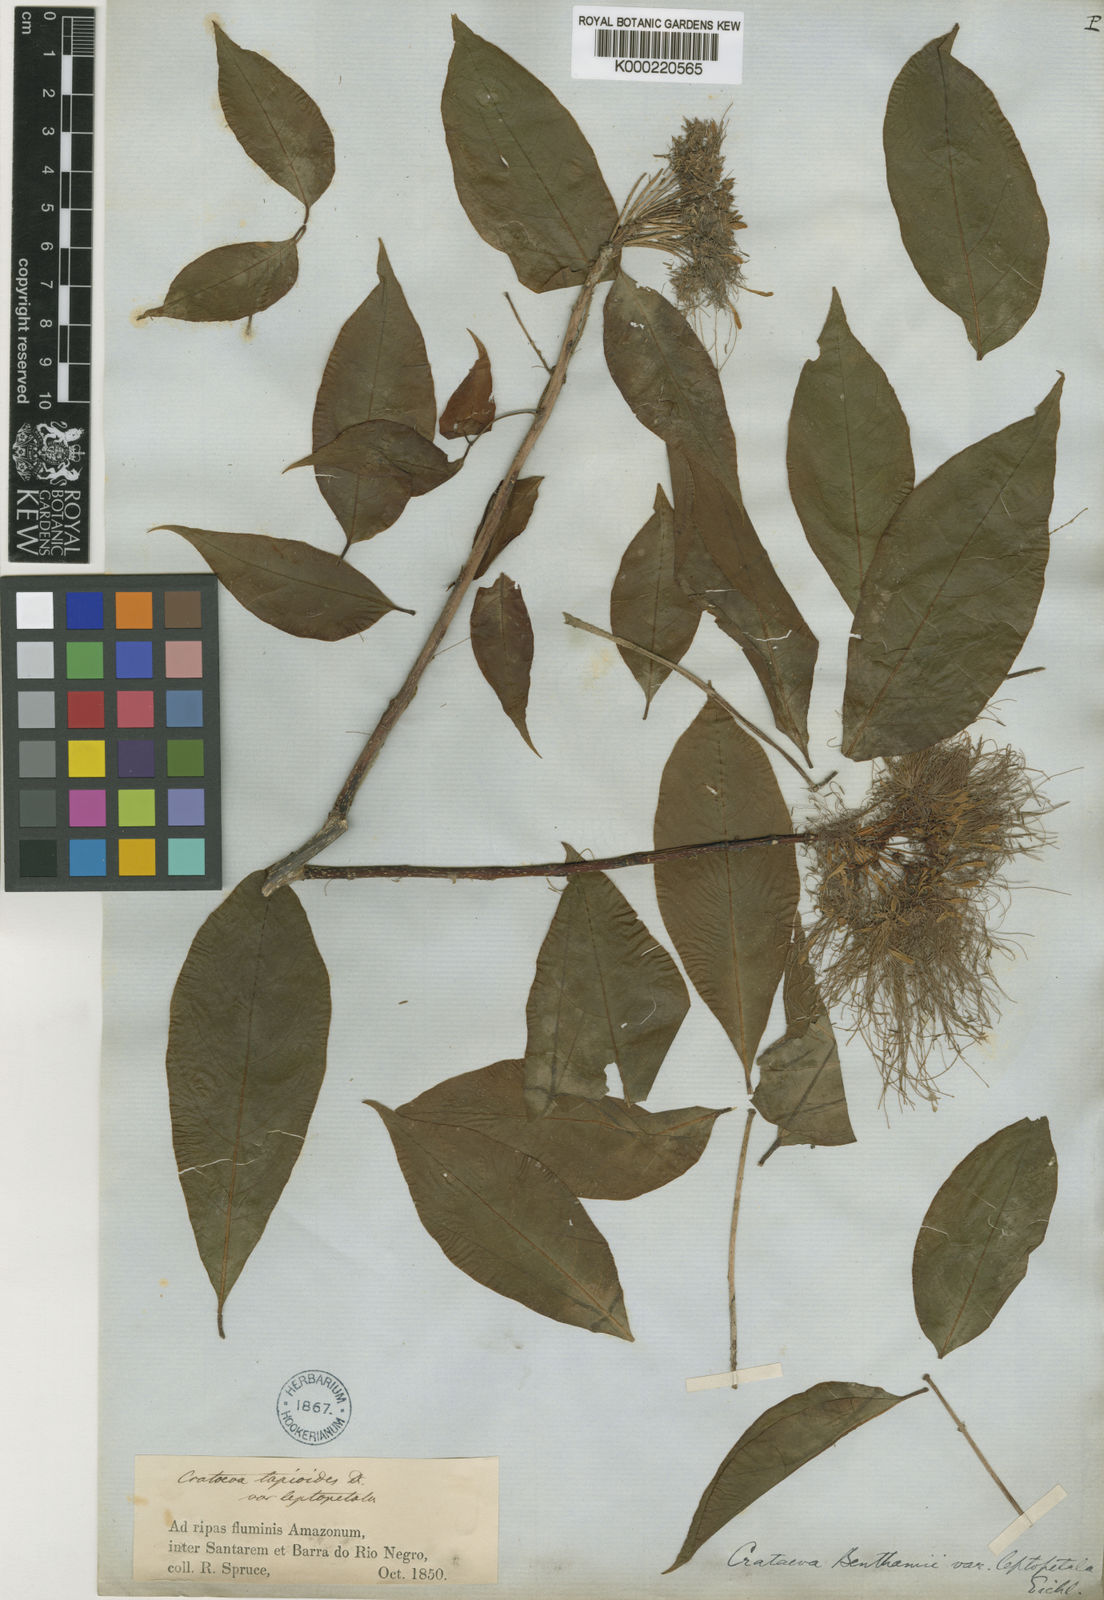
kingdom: Plantae
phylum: Tracheophyta
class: Magnoliopsida
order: Brassicales
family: Capparaceae
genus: Crateva
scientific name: Crateva tapia
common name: Garlic-pear
